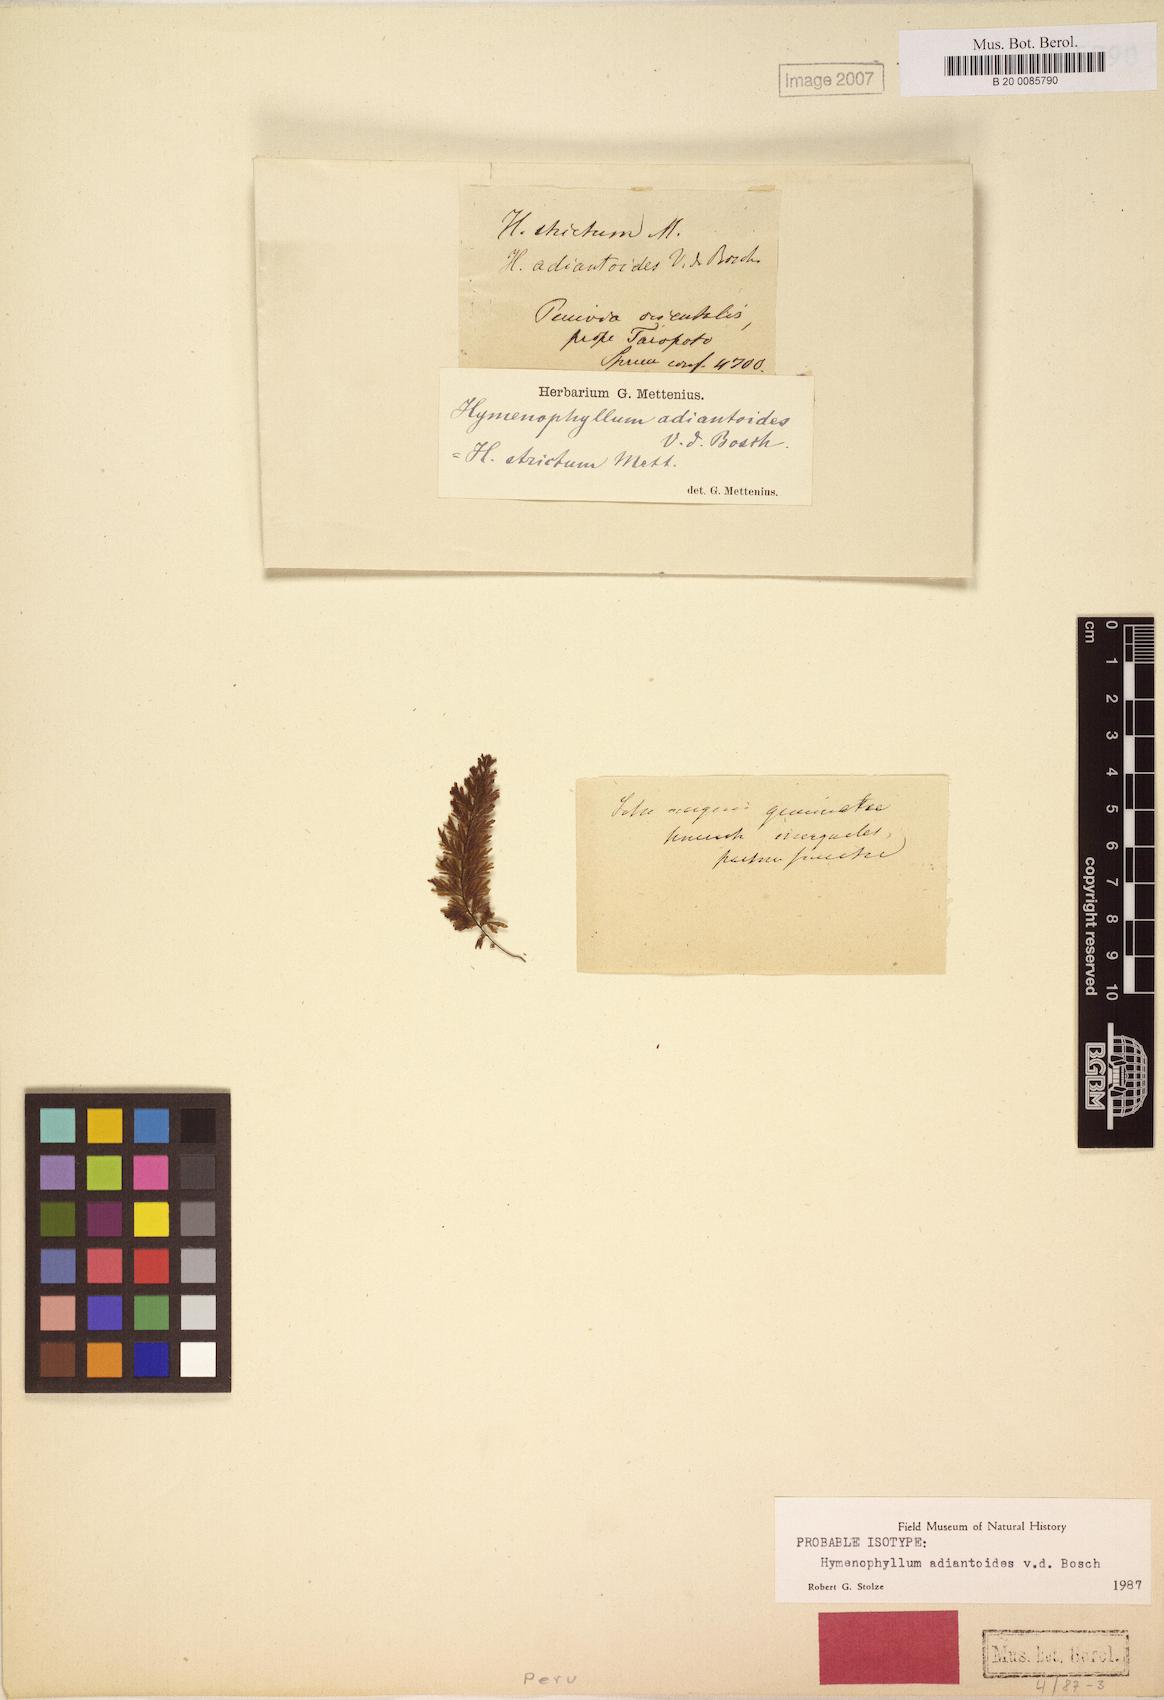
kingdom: Plantae
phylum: Tracheophyta
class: Polypodiopsida
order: Hymenophyllales
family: Hymenophyllaceae
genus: Hymenophyllum
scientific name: Hymenophyllum adiantoides
